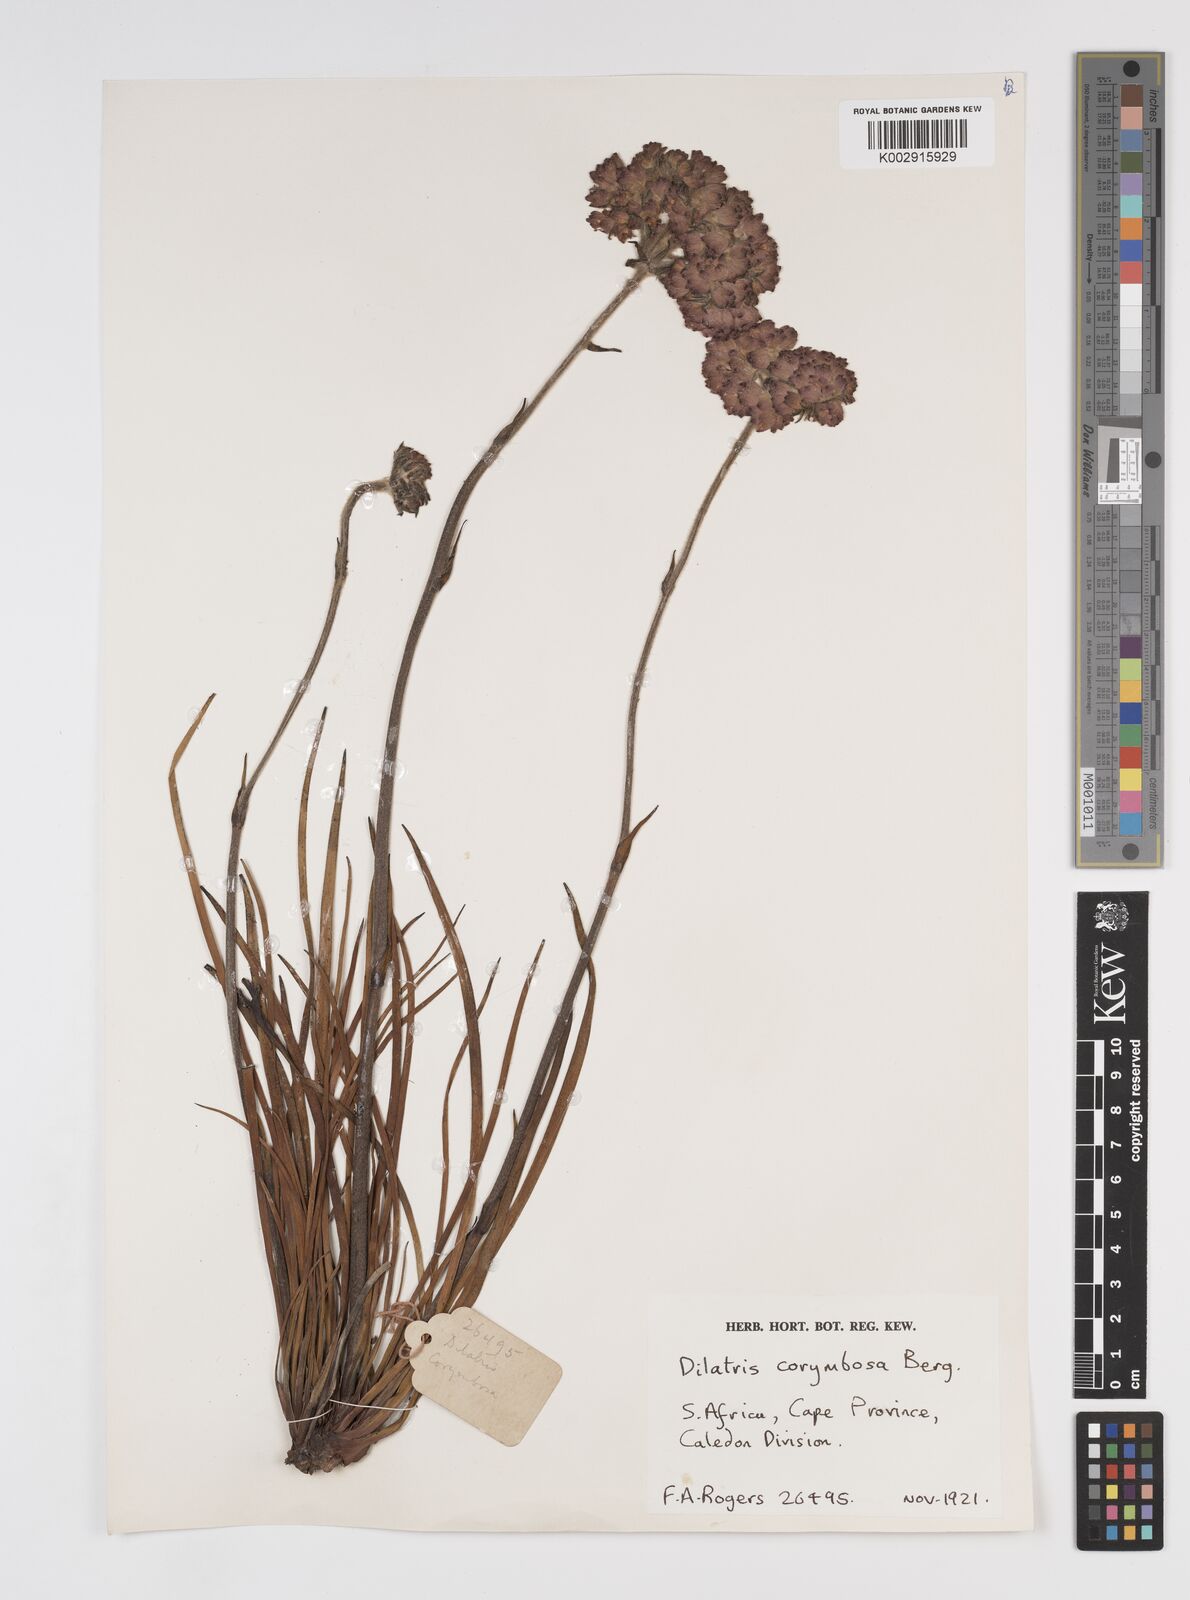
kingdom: Plantae
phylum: Tracheophyta
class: Liliopsida
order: Commelinales
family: Haemodoraceae
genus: Dilatris
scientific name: Dilatris corymbosa
